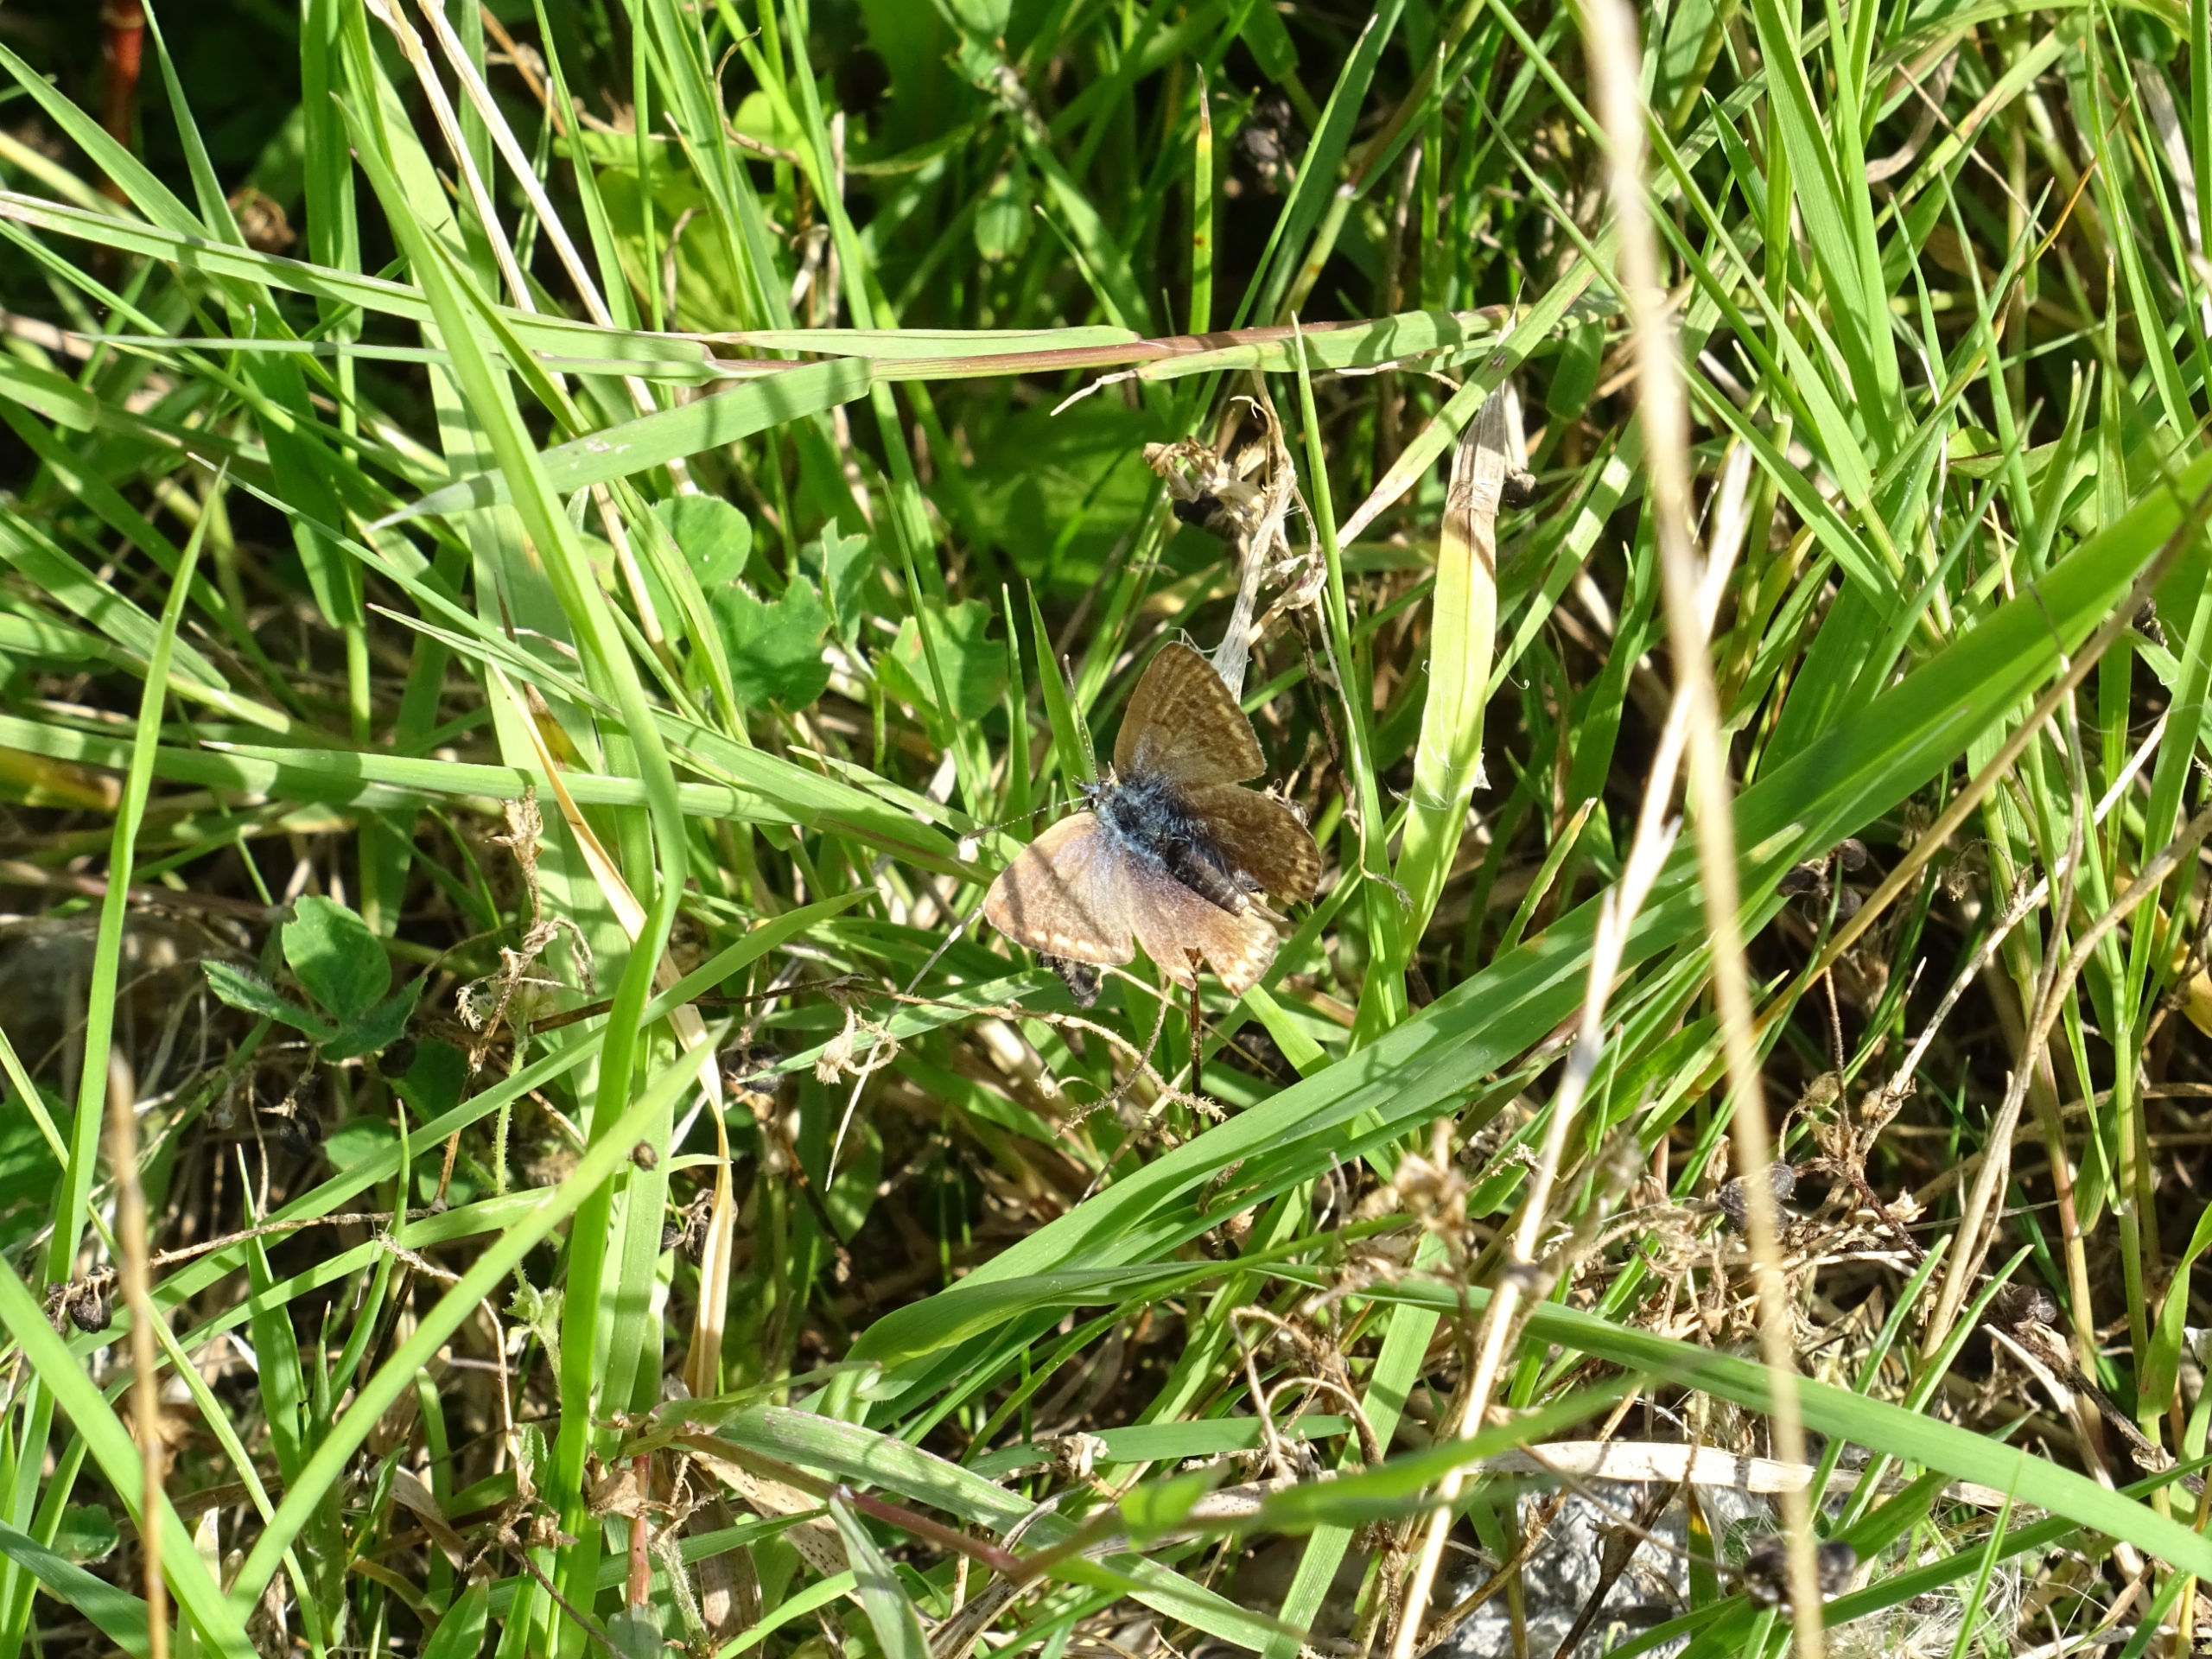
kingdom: Animalia
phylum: Arthropoda
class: Insecta
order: Lepidoptera
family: Lycaenidae
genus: Polyommatus
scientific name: Polyommatus icarus
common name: Almindelig blåfugl
